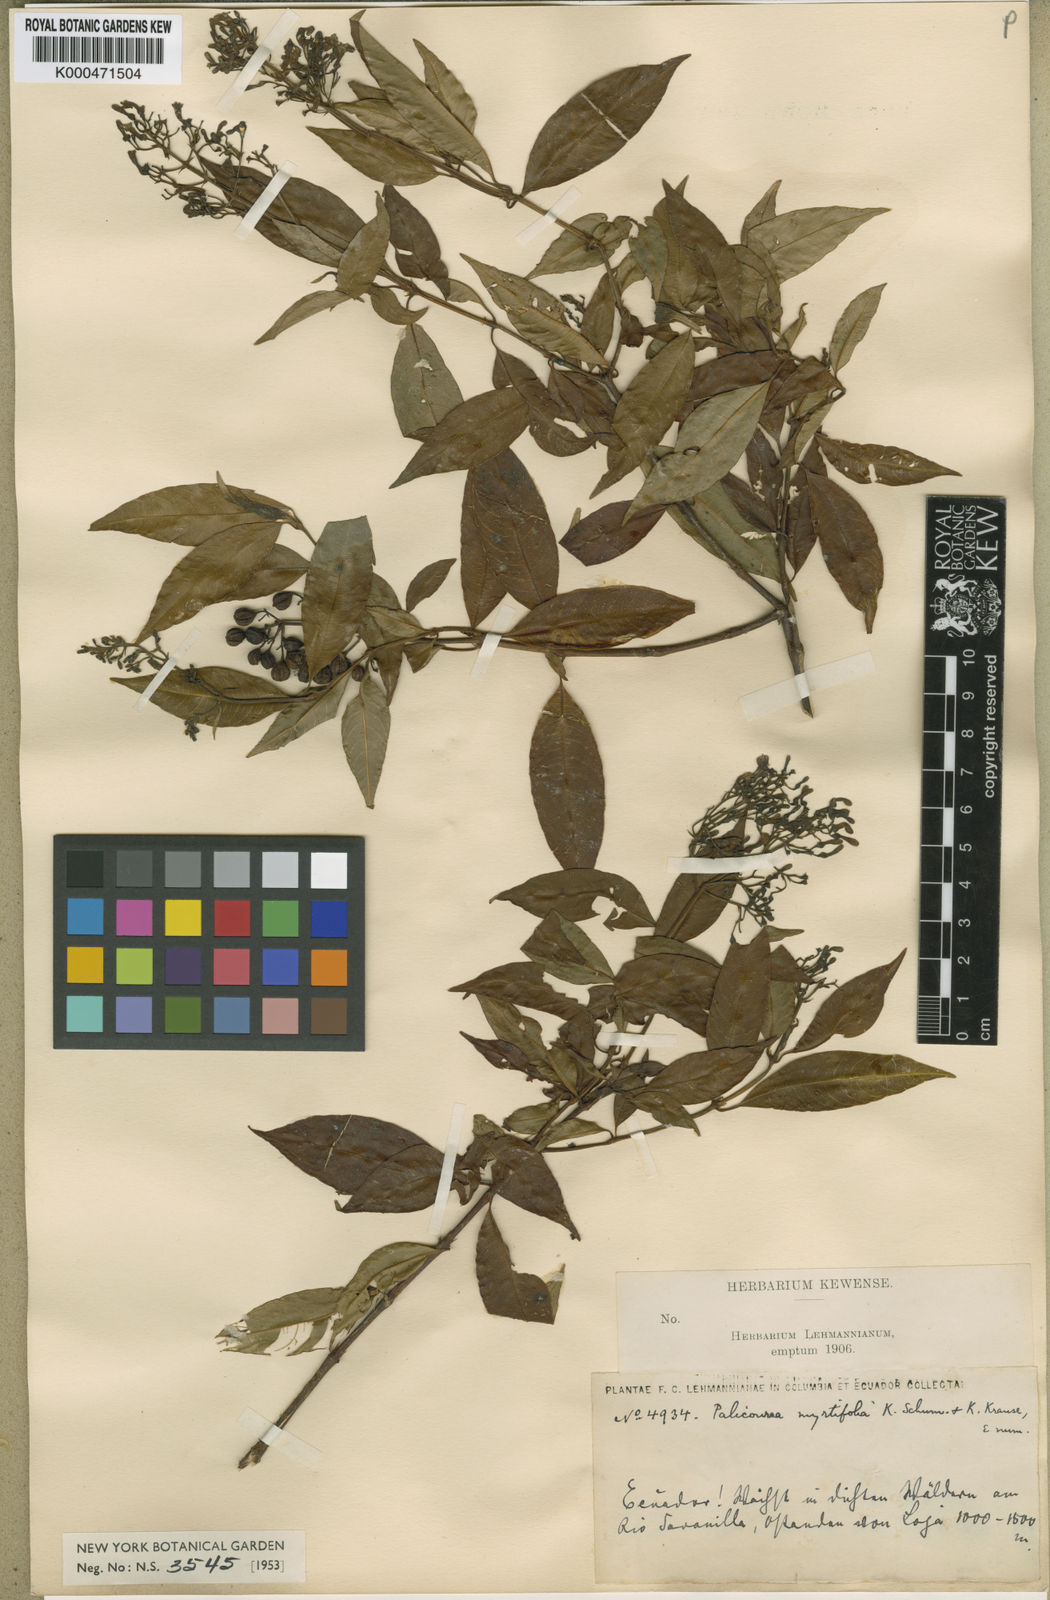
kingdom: Plantae
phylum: Tracheophyta
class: Magnoliopsida
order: Gentianales
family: Rubiaceae
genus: Palicourea
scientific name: Palicourea myrtifolia
